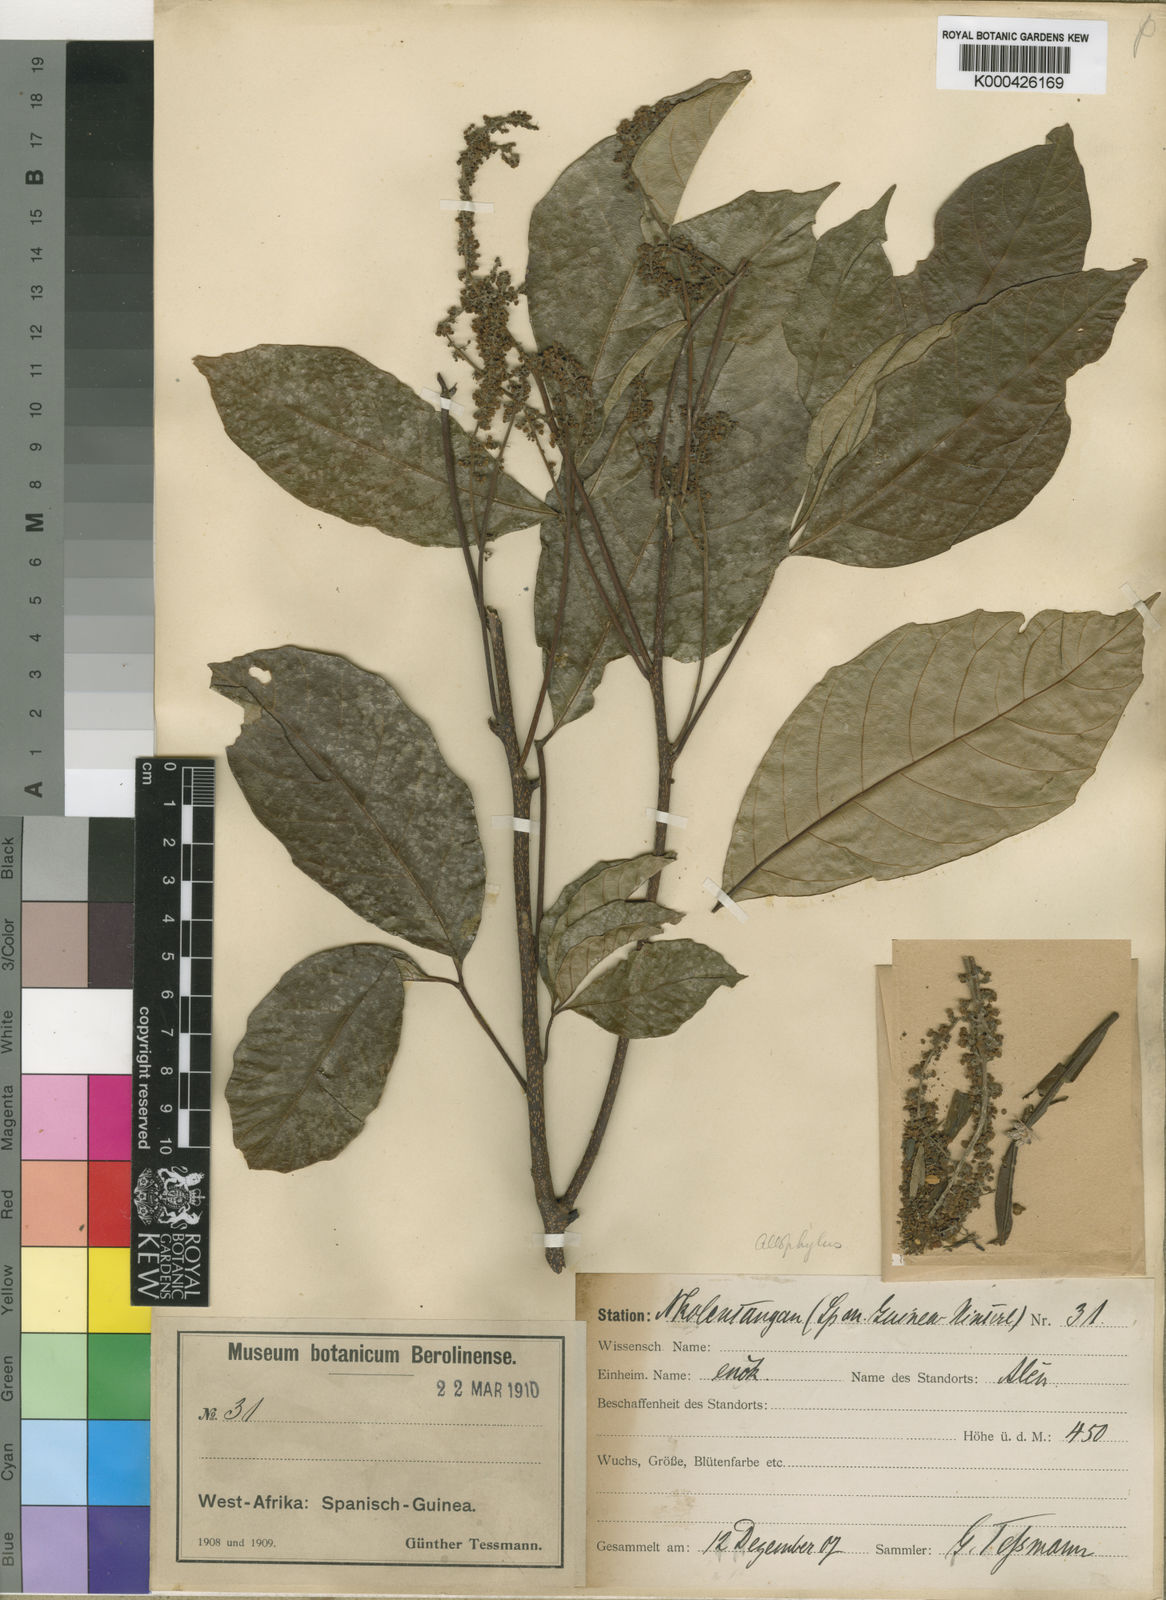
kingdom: Plantae
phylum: Tracheophyta
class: Magnoliopsida
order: Sapindales
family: Sapindaceae
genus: Allophylus
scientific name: Allophylus gossweileri
